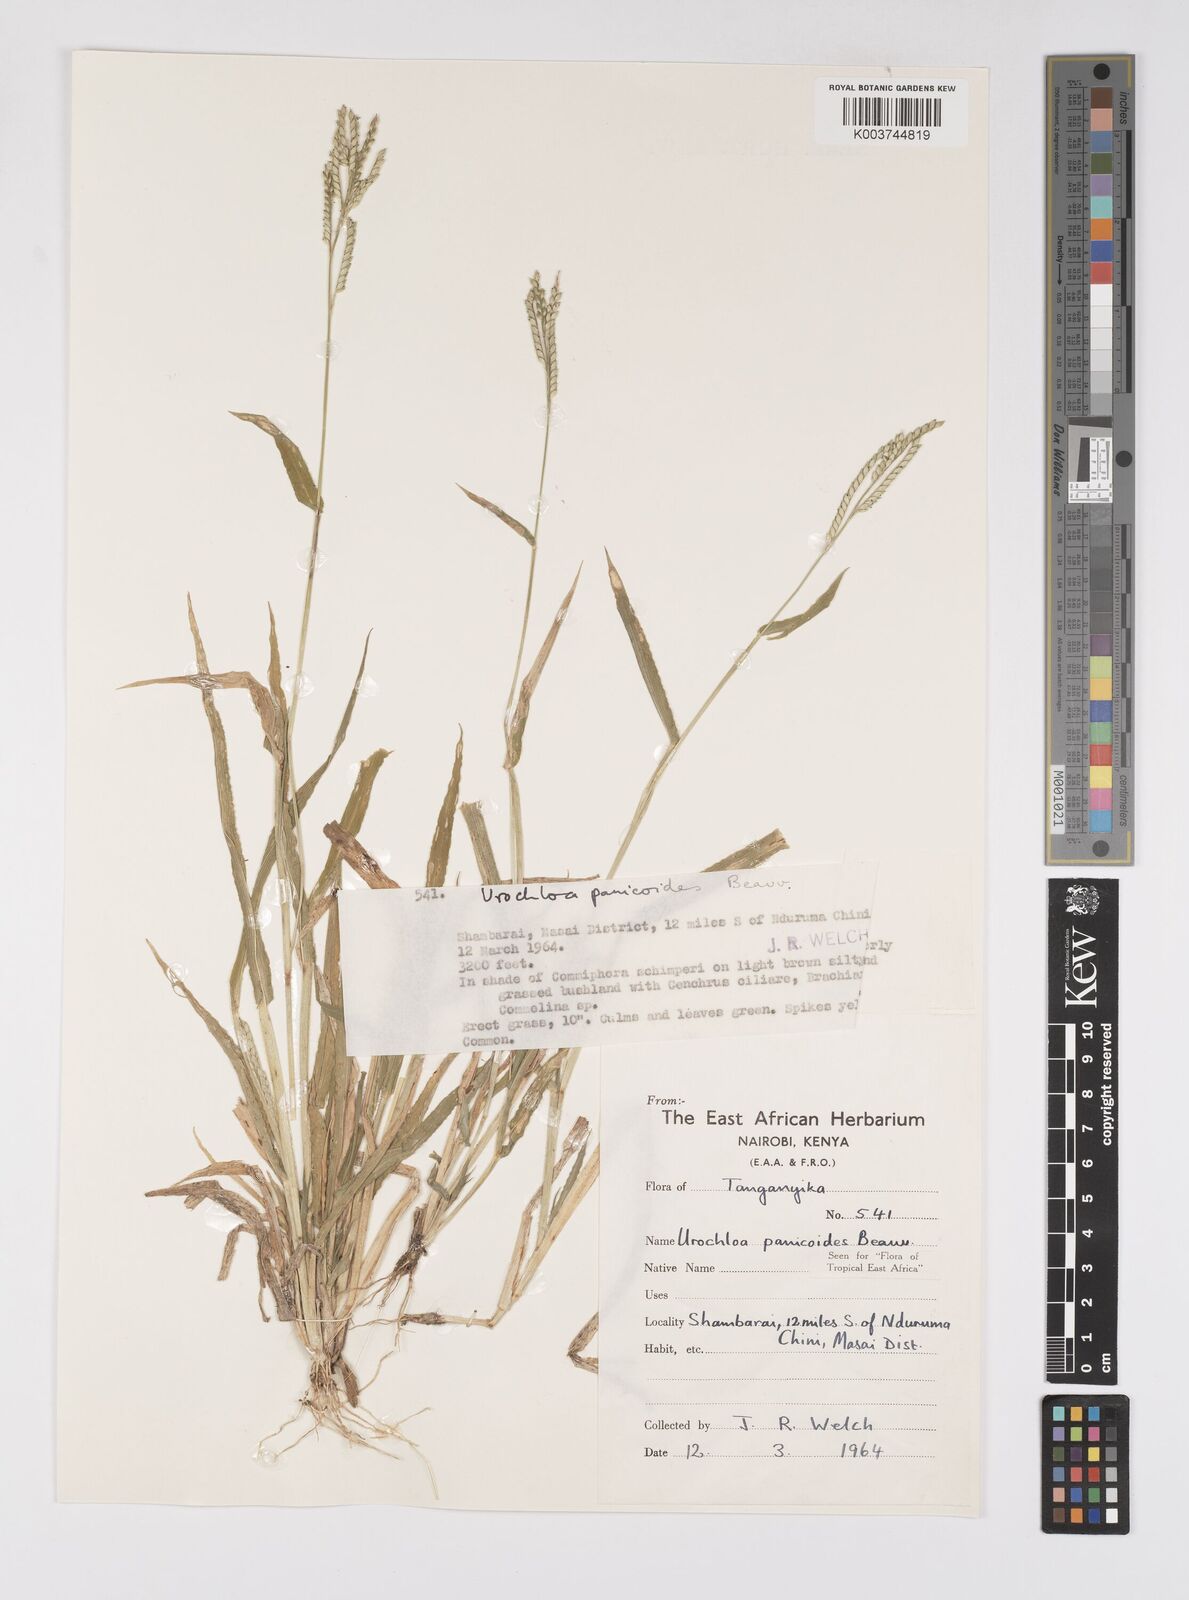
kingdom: Plantae
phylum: Tracheophyta
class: Liliopsida
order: Poales
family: Poaceae
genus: Urochloa
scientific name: Urochloa panicoides
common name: Sharp-flowered signal-grass
